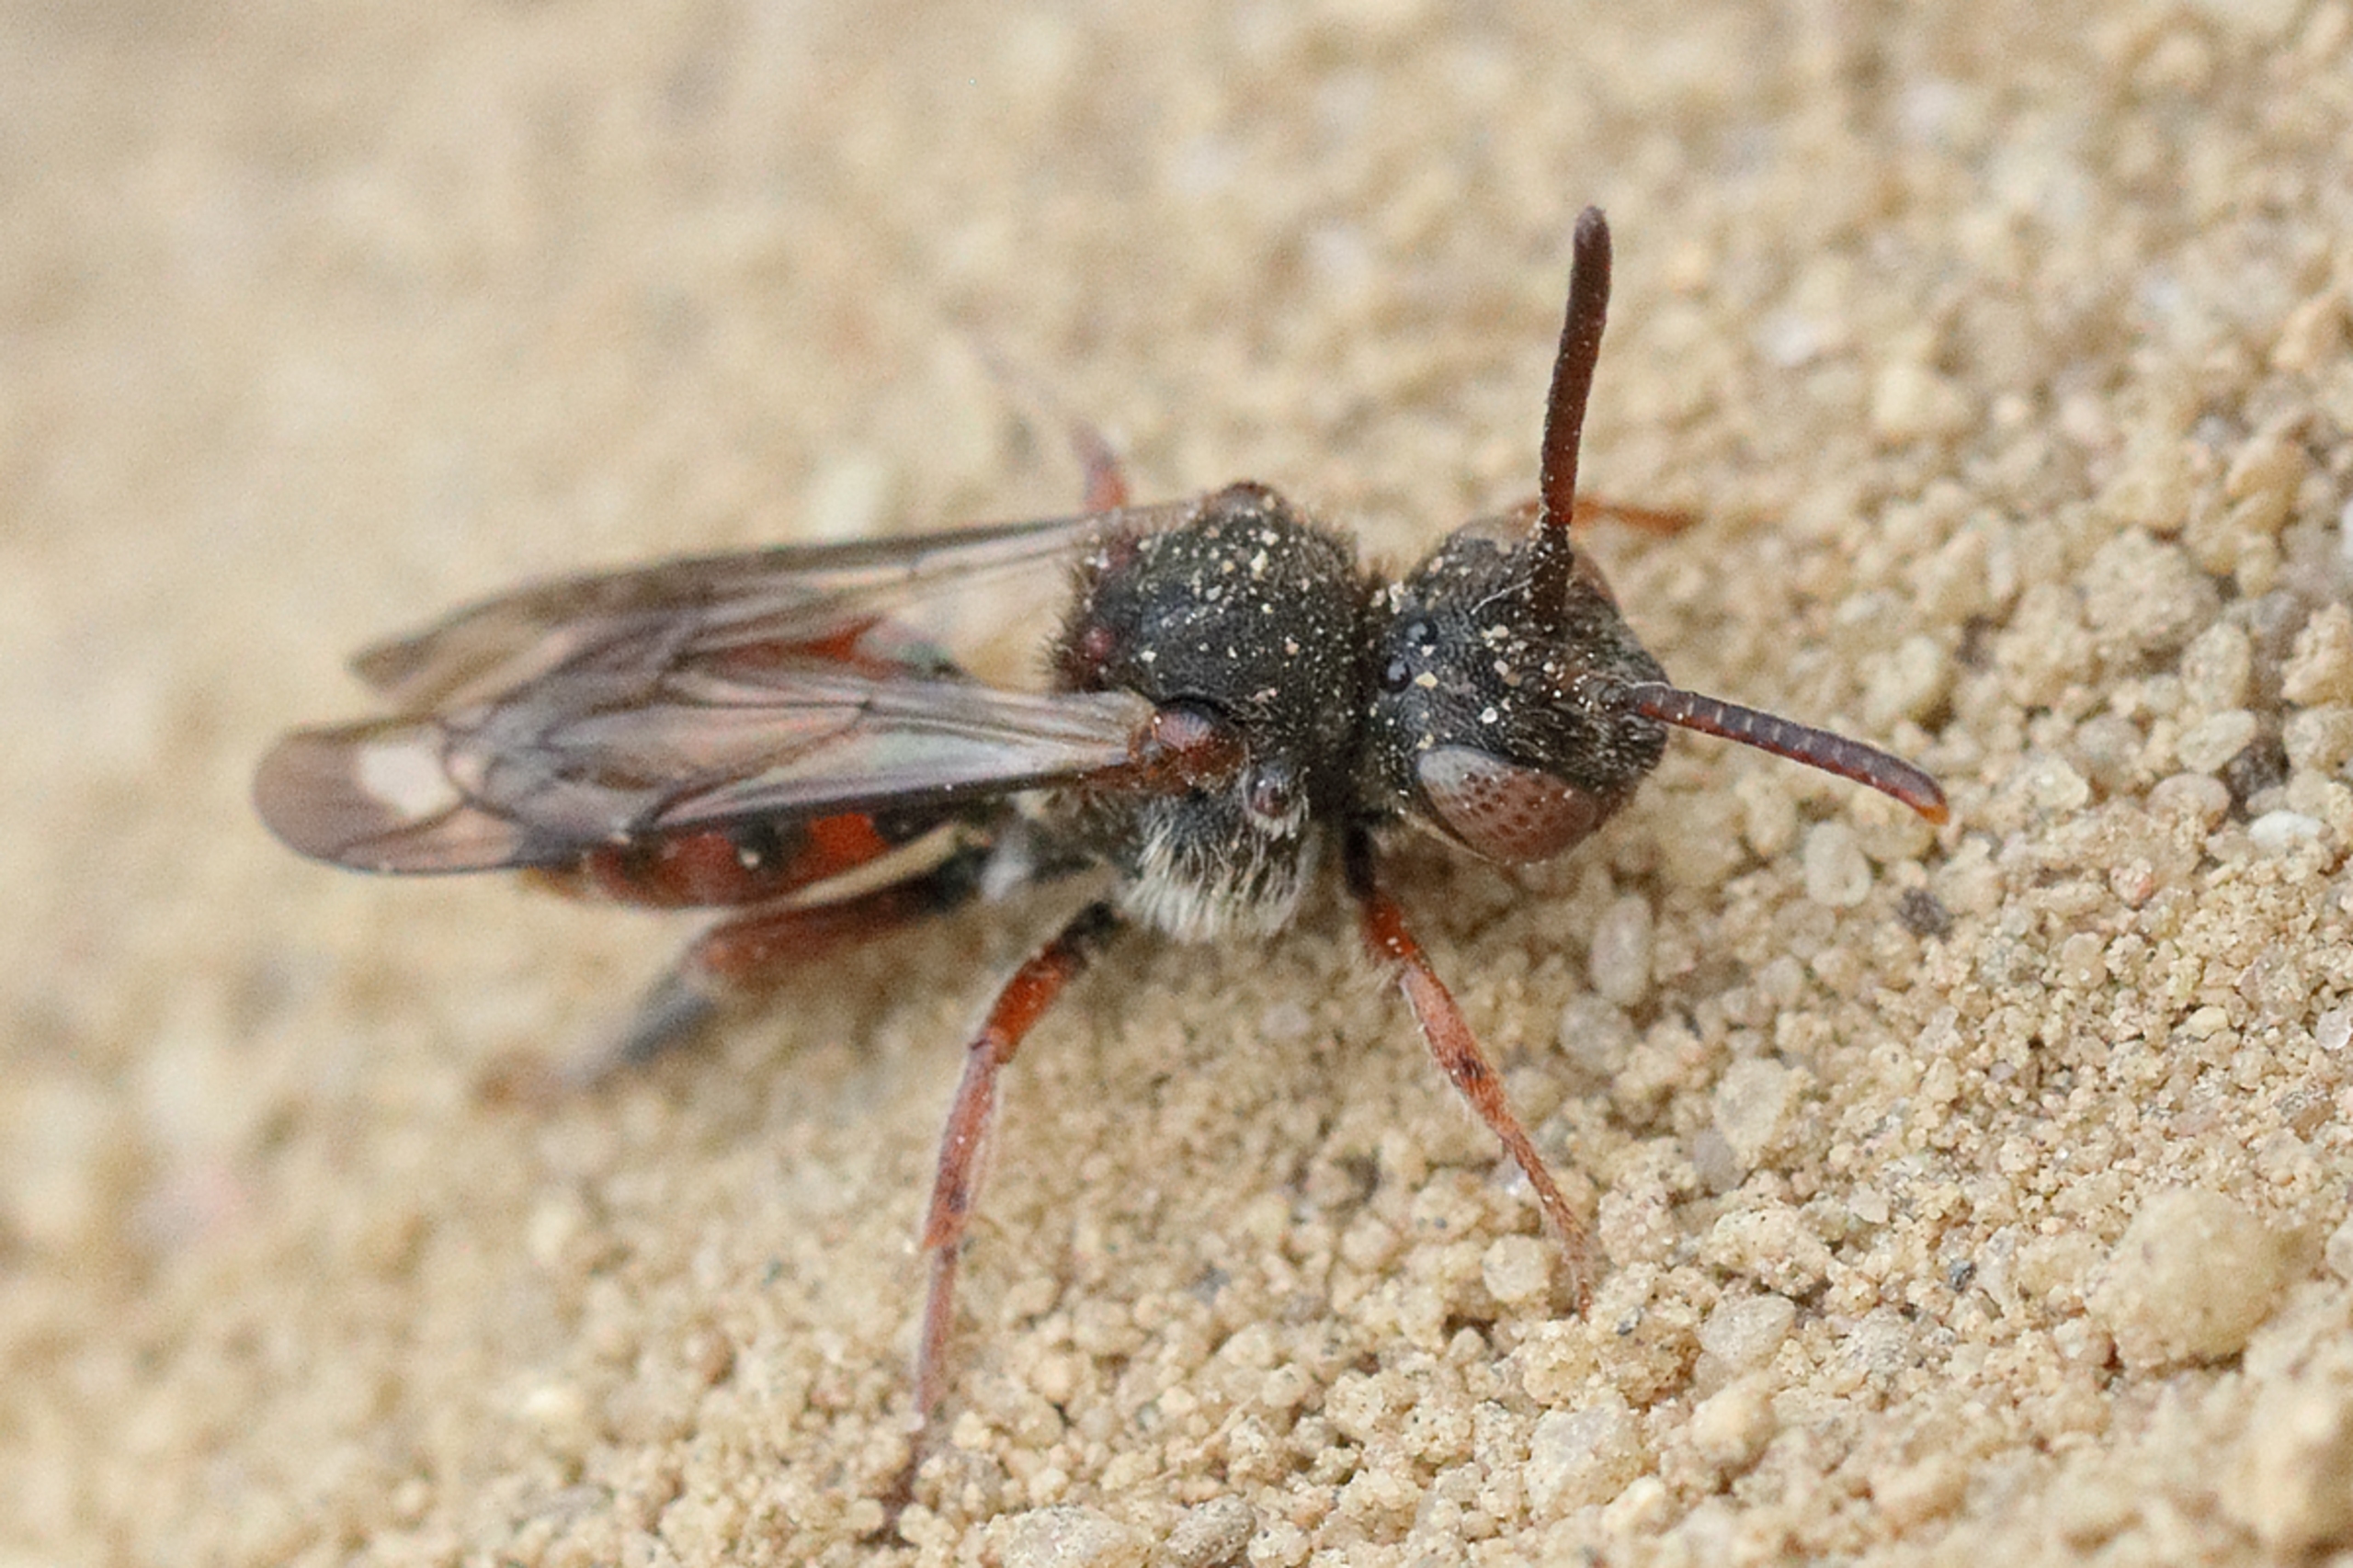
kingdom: Animalia
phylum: Arthropoda
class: Insecta
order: Hymenoptera
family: Apidae
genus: Nomada
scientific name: Nomada integra
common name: Rød hvepsebi
